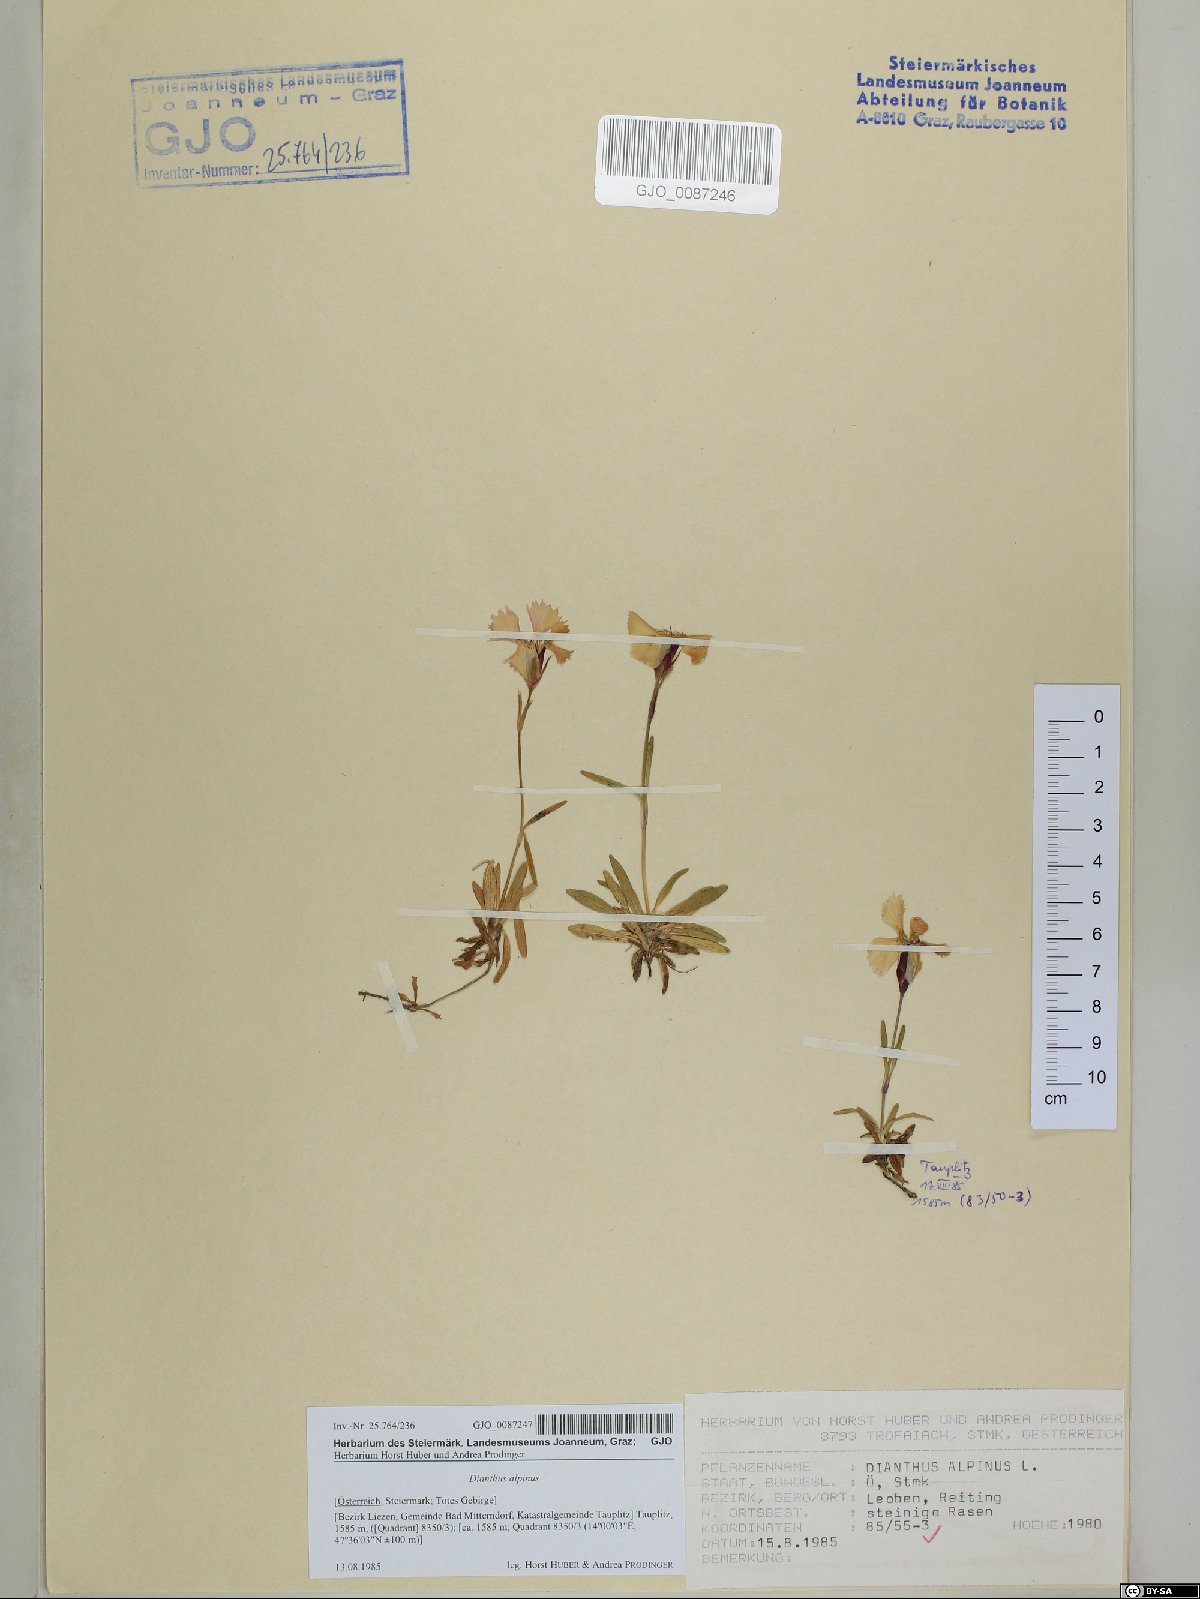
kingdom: Plantae
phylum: Tracheophyta
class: Magnoliopsida
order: Caryophyllales
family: Caryophyllaceae
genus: Dianthus
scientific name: Dianthus alpinus
